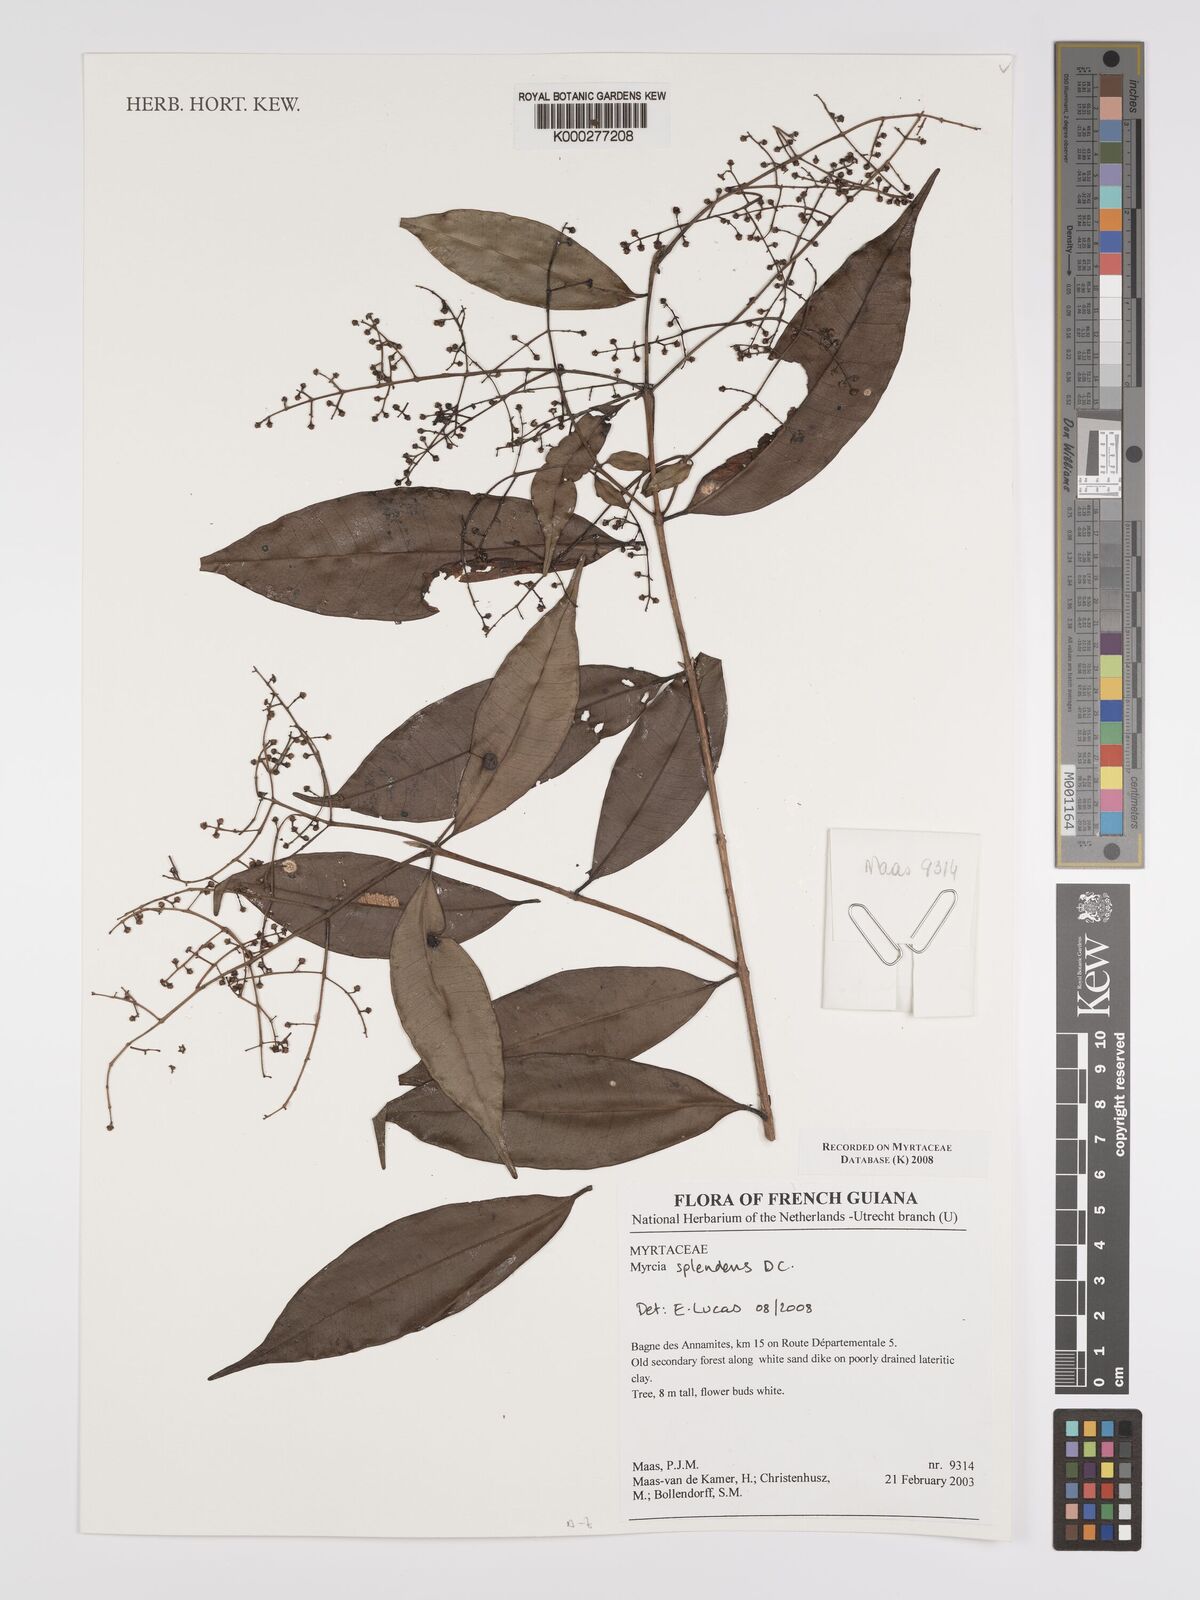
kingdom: Plantae
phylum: Tracheophyta
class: Magnoliopsida
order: Myrtales
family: Myrtaceae
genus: Myrcia
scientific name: Myrcia splendens
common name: Surinam cherry
